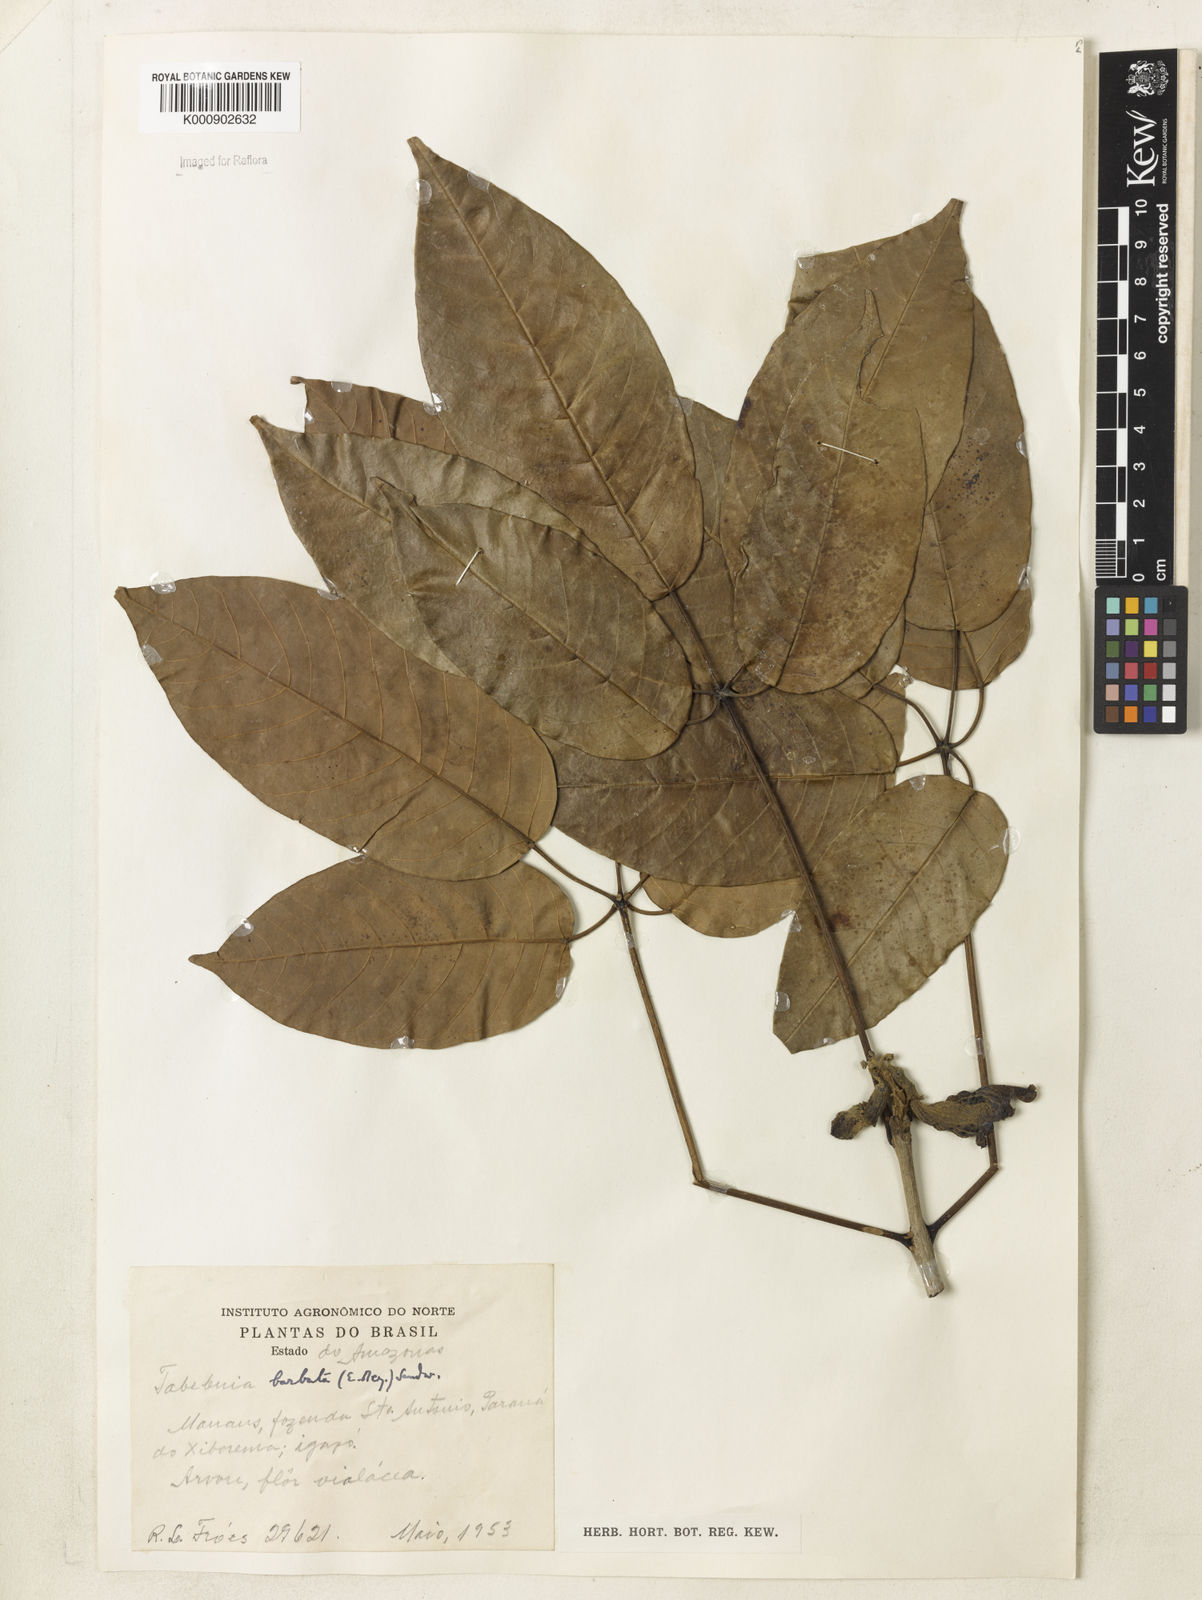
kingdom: Plantae
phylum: Tracheophyta
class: Magnoliopsida
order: Lamiales
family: Bignoniaceae
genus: Handroanthus
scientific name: Handroanthus barbatus
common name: Trumpet trees
